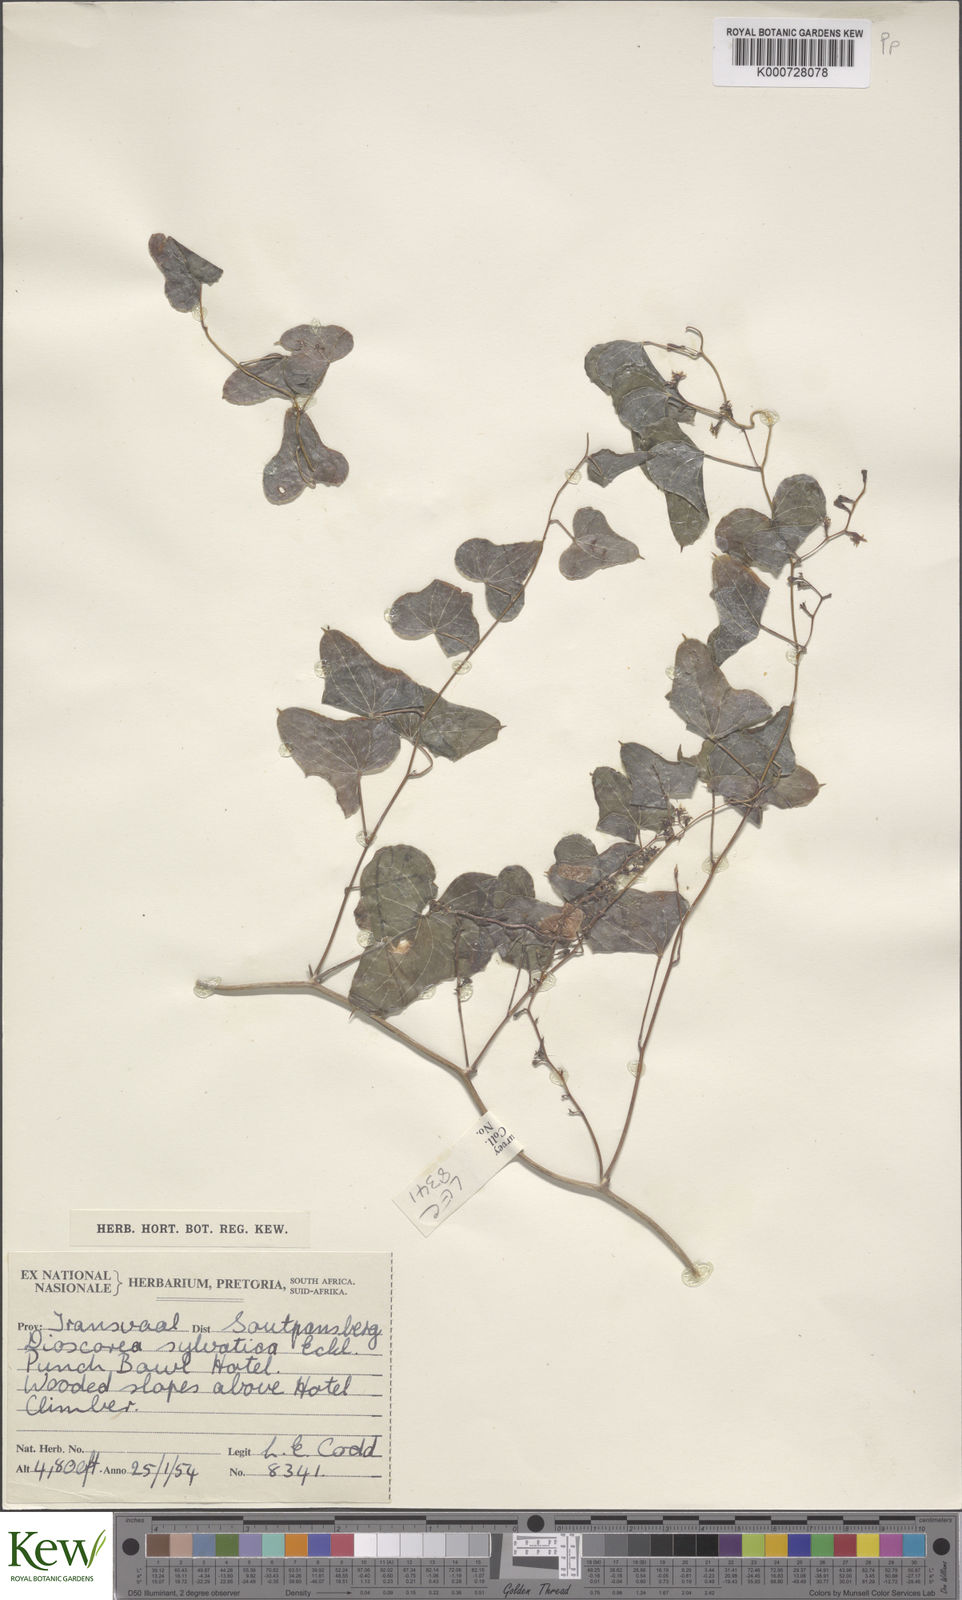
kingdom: Plantae
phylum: Tracheophyta
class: Liliopsida
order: Dioscoreales
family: Dioscoreaceae
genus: Dioscorea
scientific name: Dioscorea sylvatica
